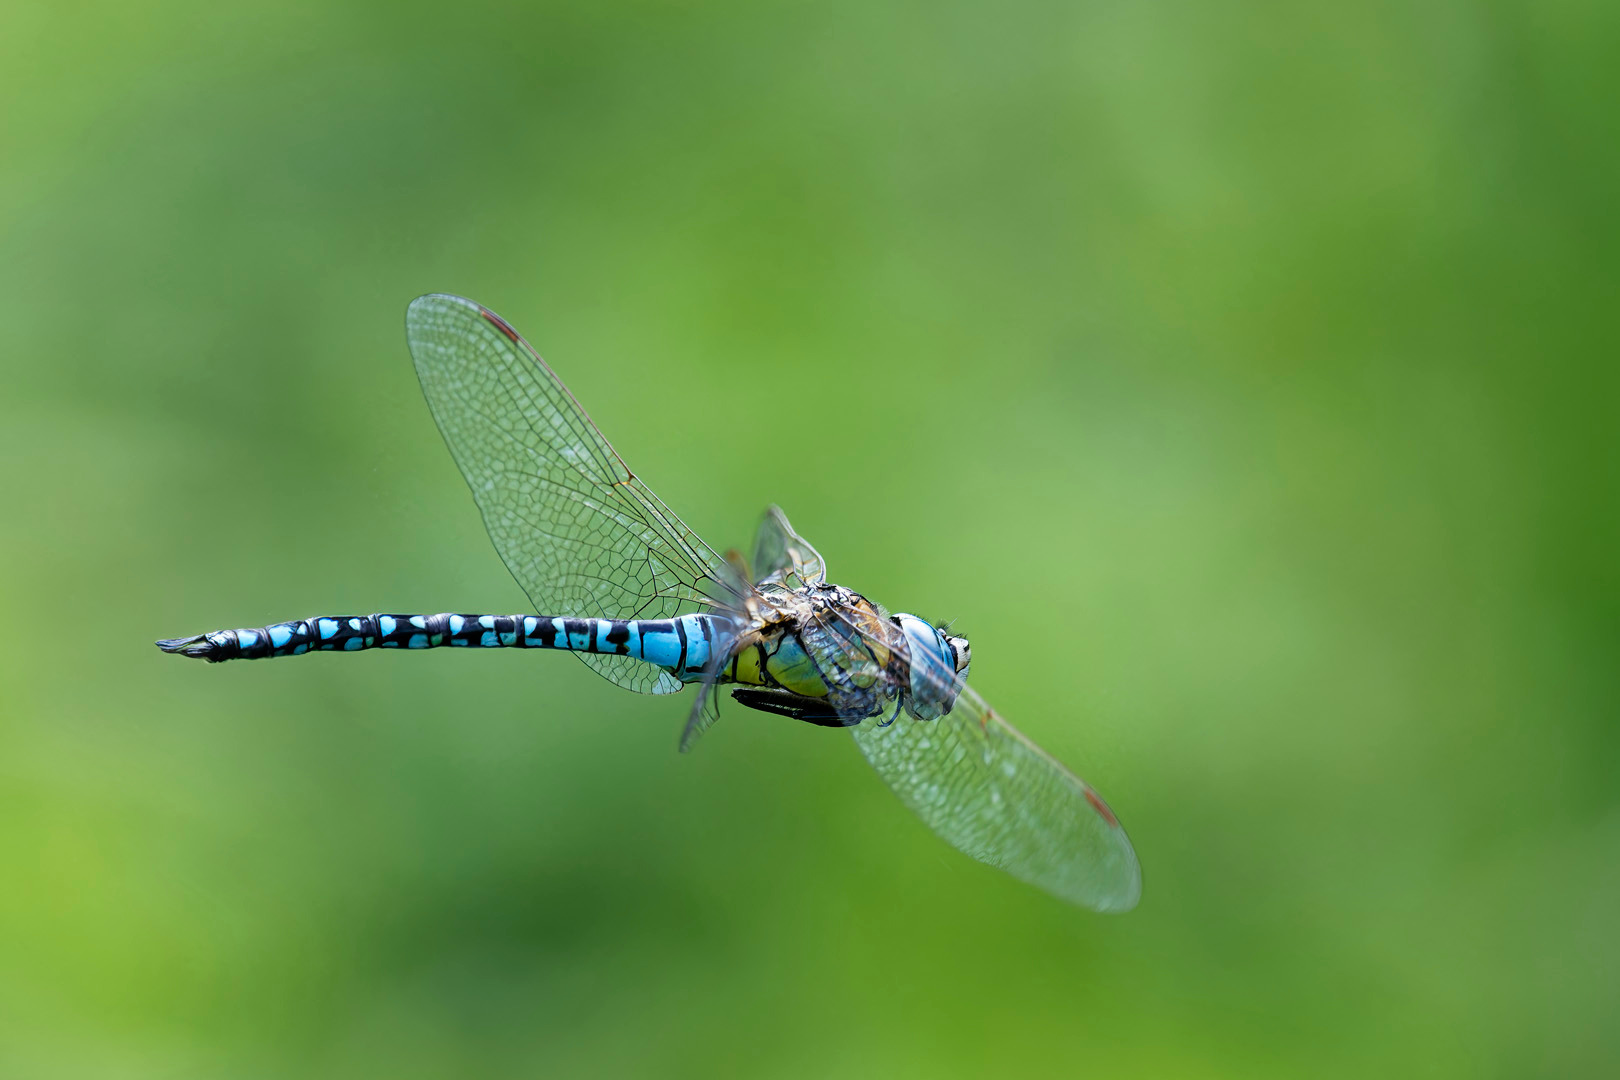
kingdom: Animalia
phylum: Arthropoda
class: Insecta
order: Odonata
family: Aeshnidae
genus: Aeshna
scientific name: Aeshna affinis
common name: Sydlig mosaikguldsmed
